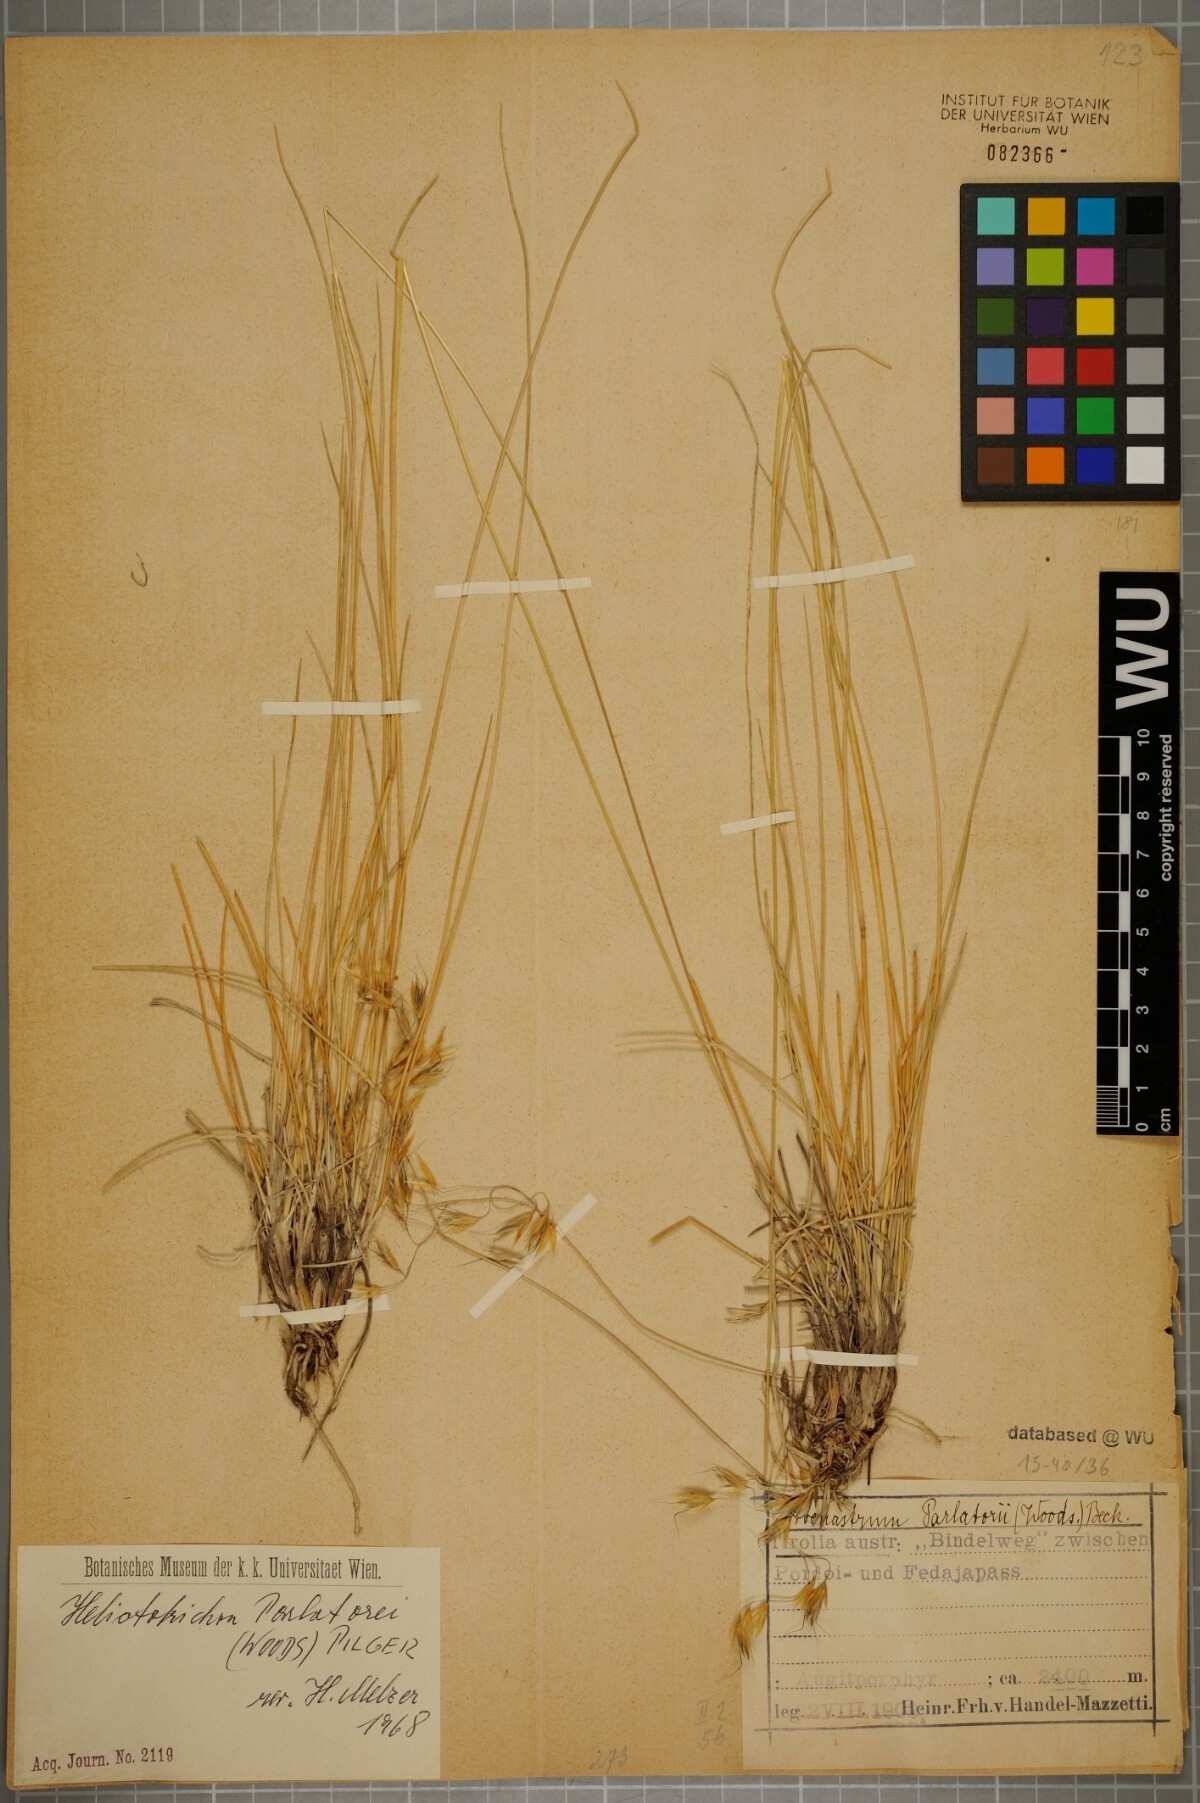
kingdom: Plantae
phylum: Tracheophyta
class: Liliopsida
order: Poales
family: Poaceae
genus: Helictotrichon
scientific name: Helictotrichon parlatorei
